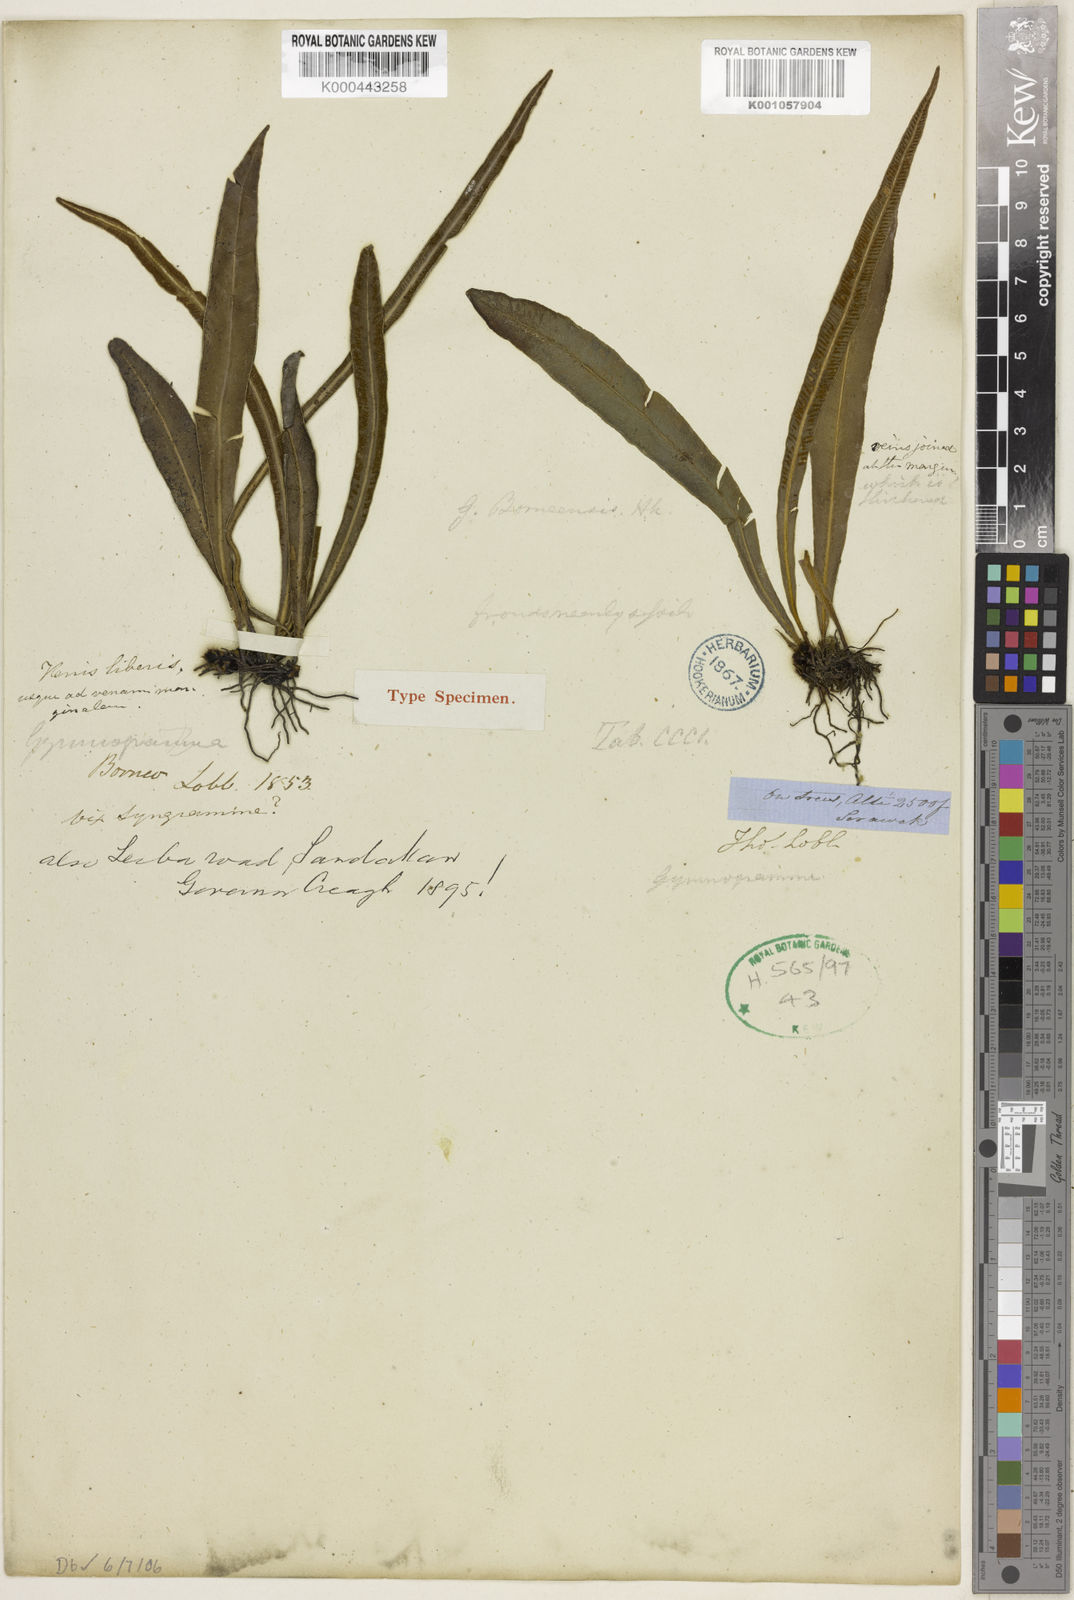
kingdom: Plantae
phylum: Tracheophyta
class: Polypodiopsida
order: Polypodiales
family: Pteridaceae
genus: Syngramma
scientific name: Syngramma borneensis
